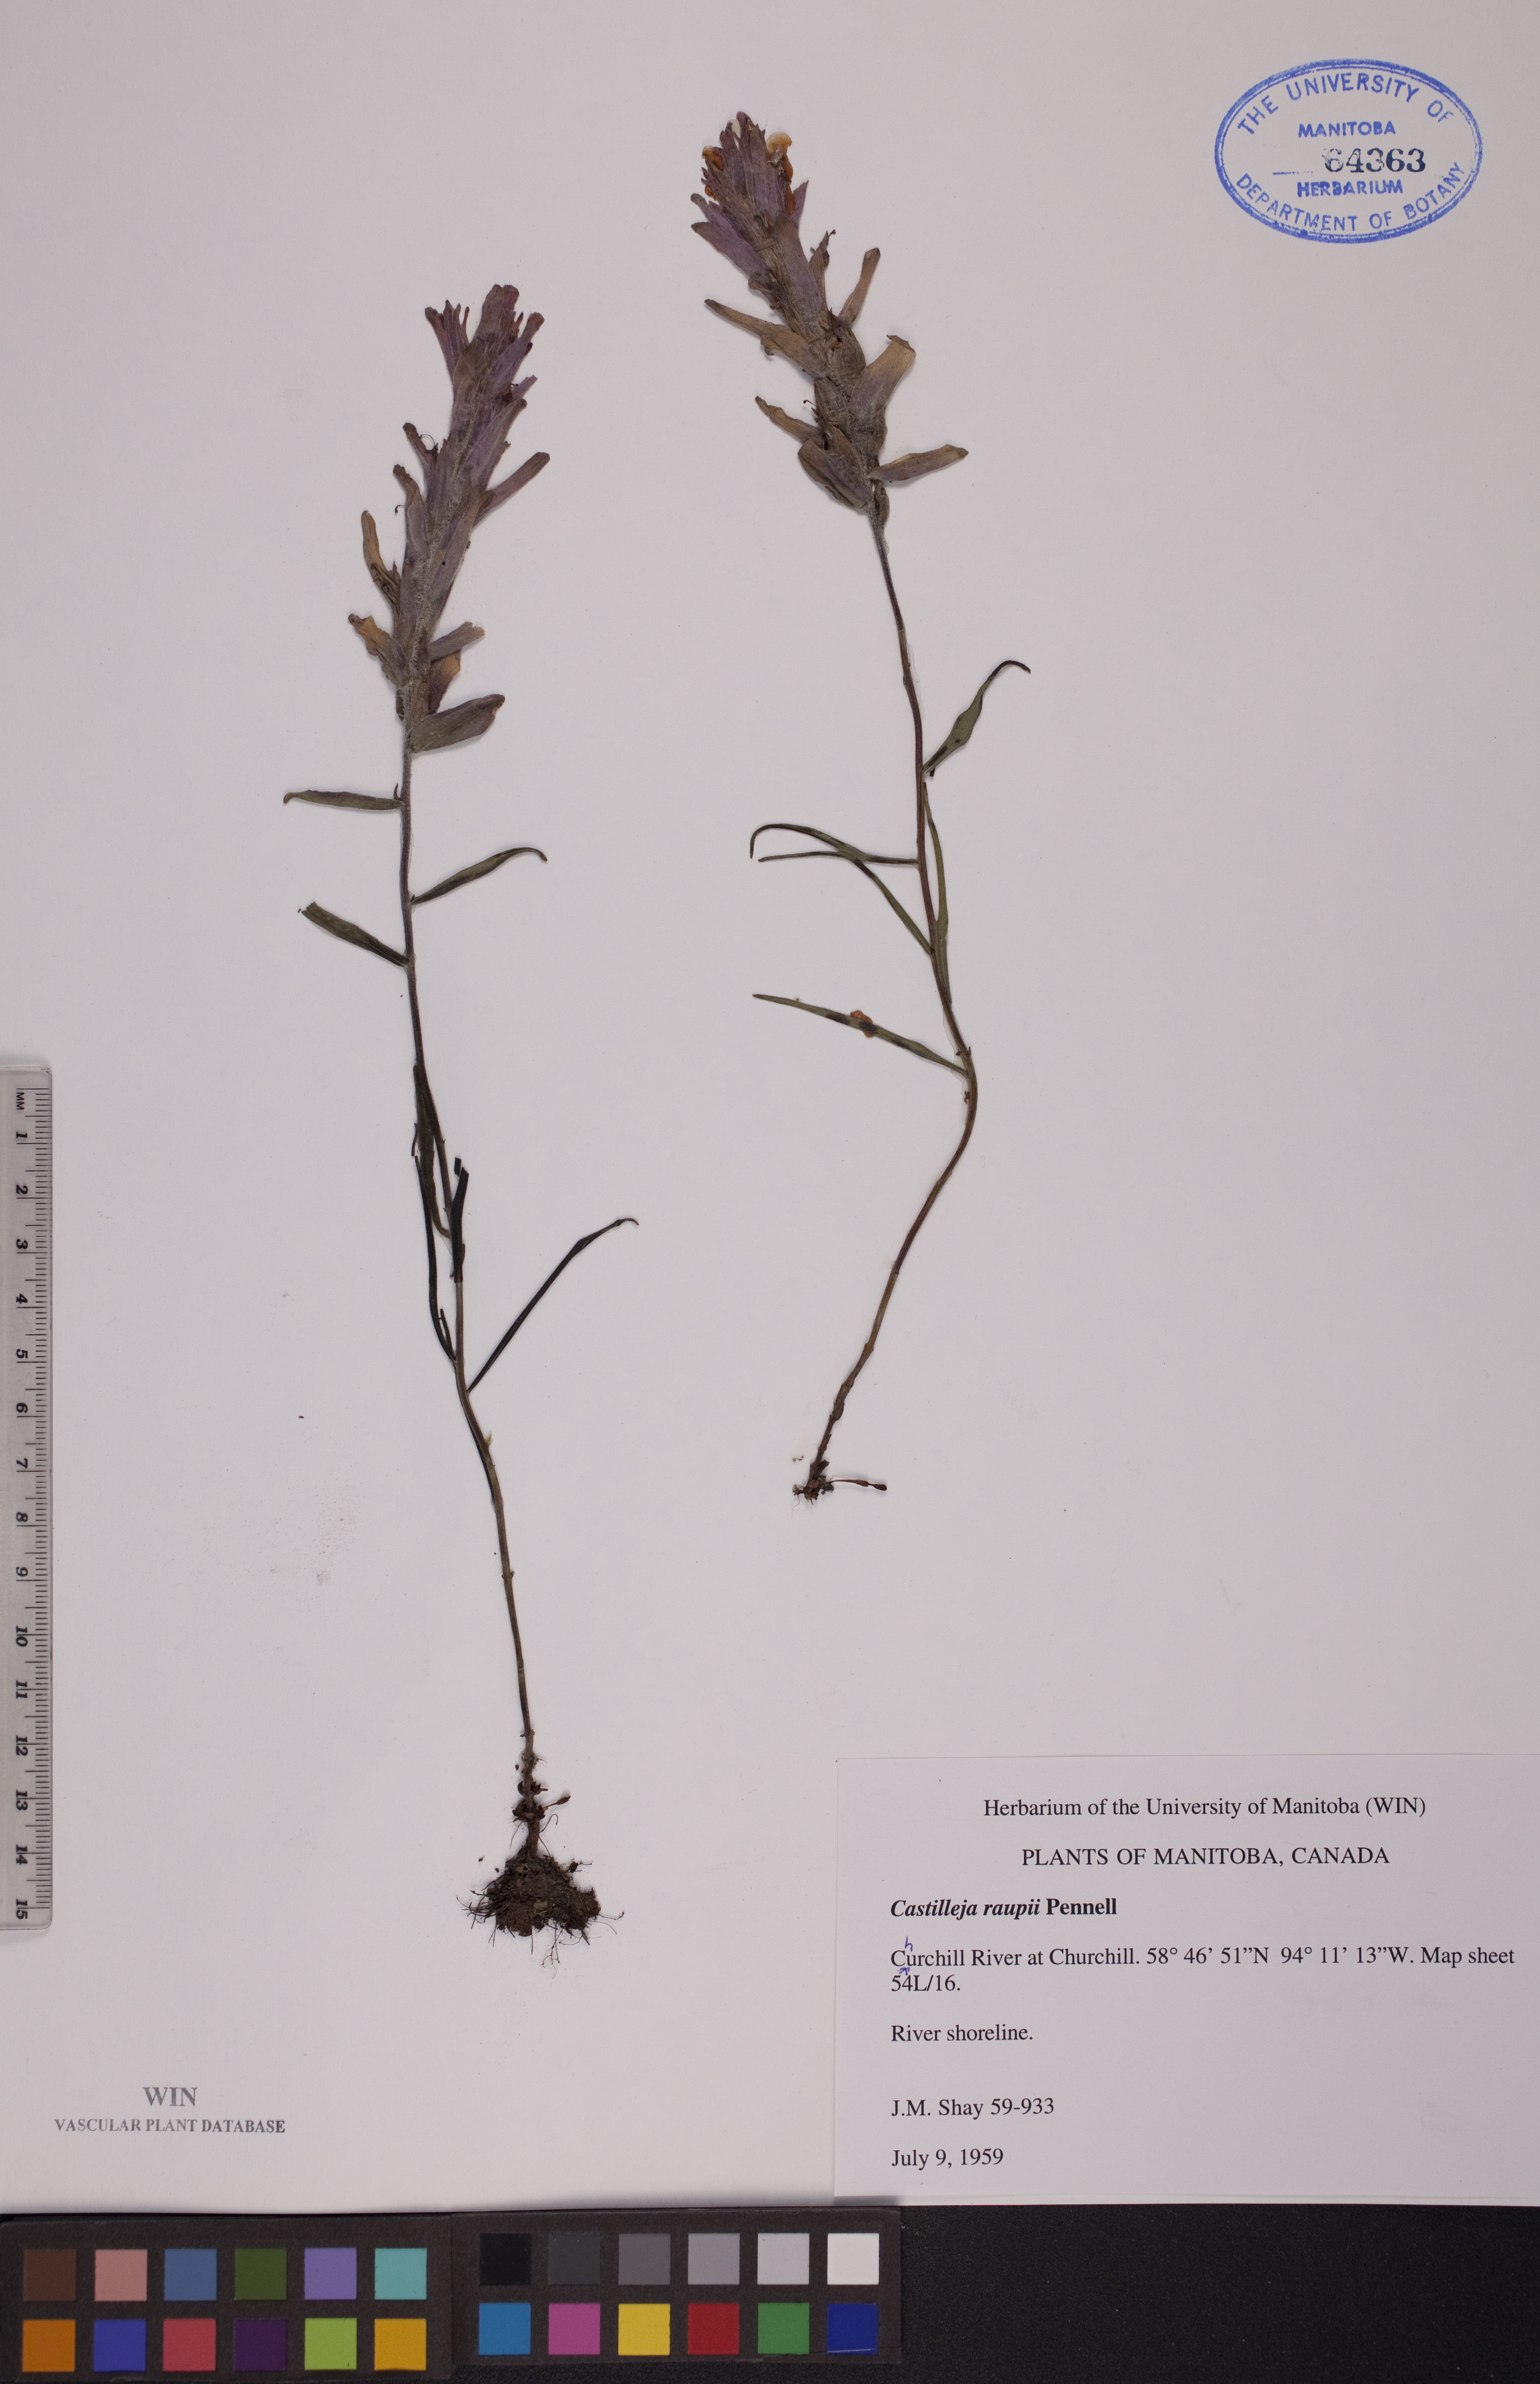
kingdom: Plantae
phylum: Tracheophyta
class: Magnoliopsida
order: Lamiales
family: Orobanchaceae
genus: Castilleja
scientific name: Castilleja raupii
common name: Raup's paintbrush
